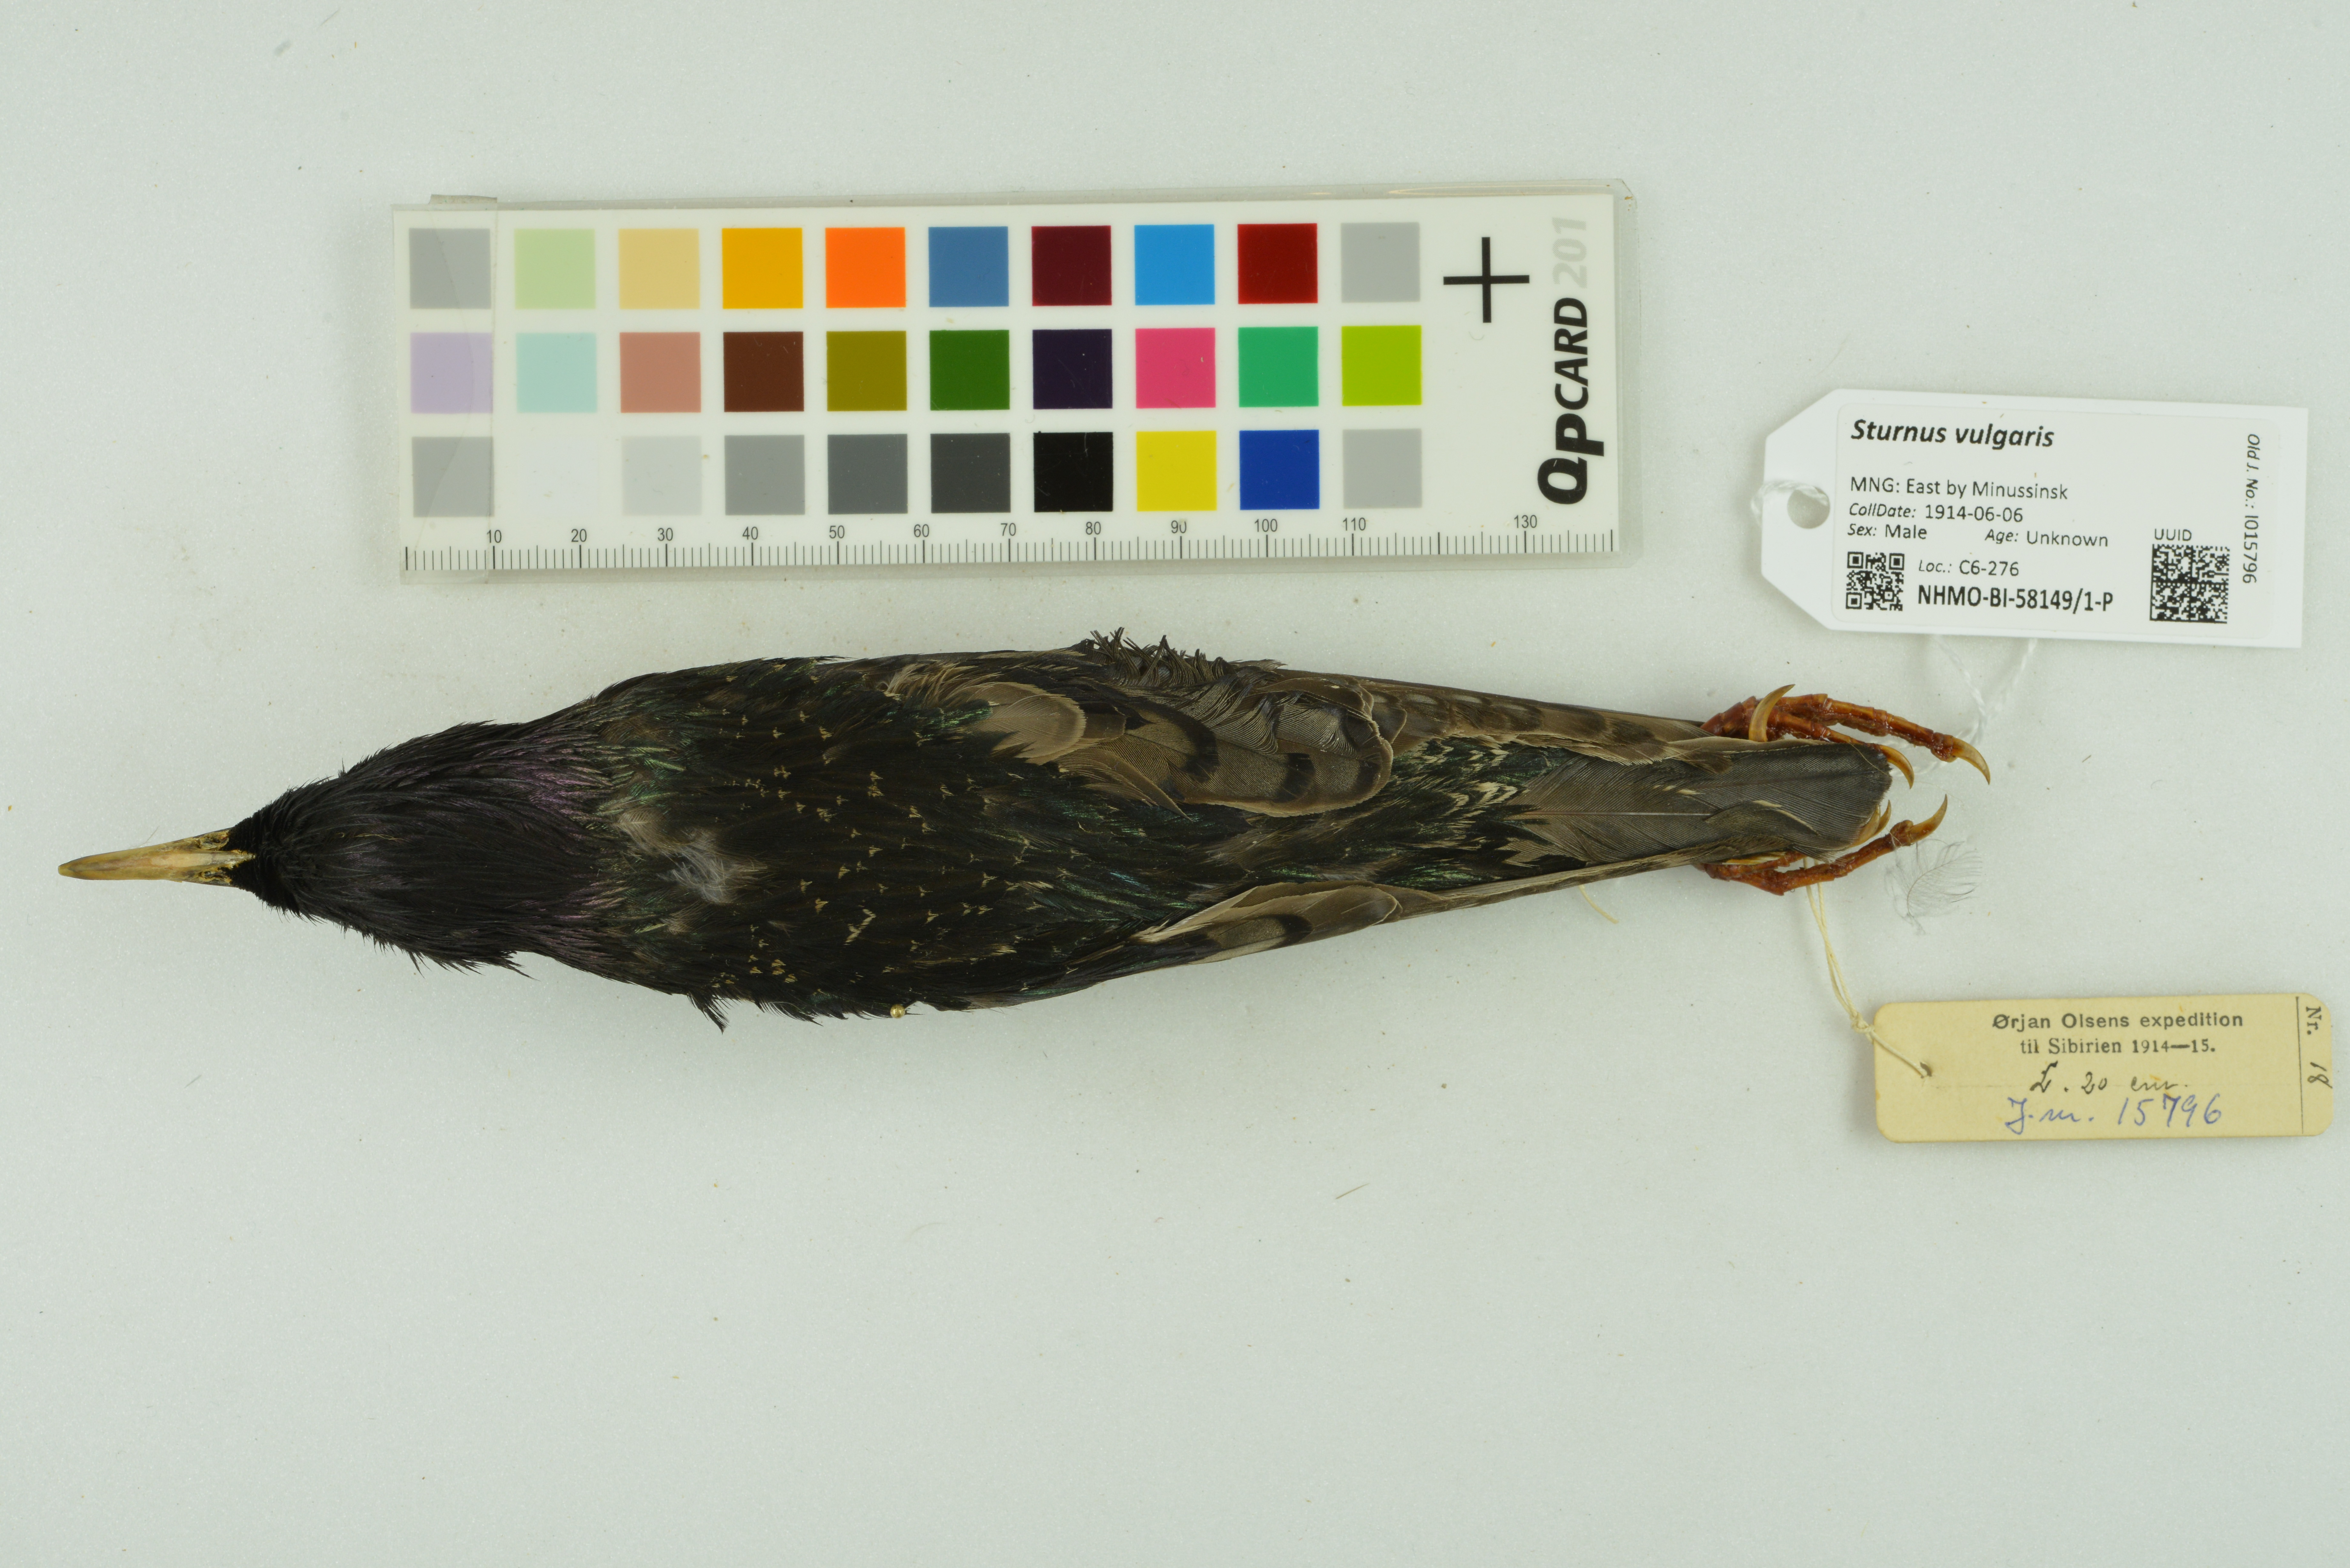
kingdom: Animalia
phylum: Chordata
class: Aves
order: Passeriformes
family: Sturnidae
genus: Sturnus
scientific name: Sturnus vulgaris
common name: Common starling
